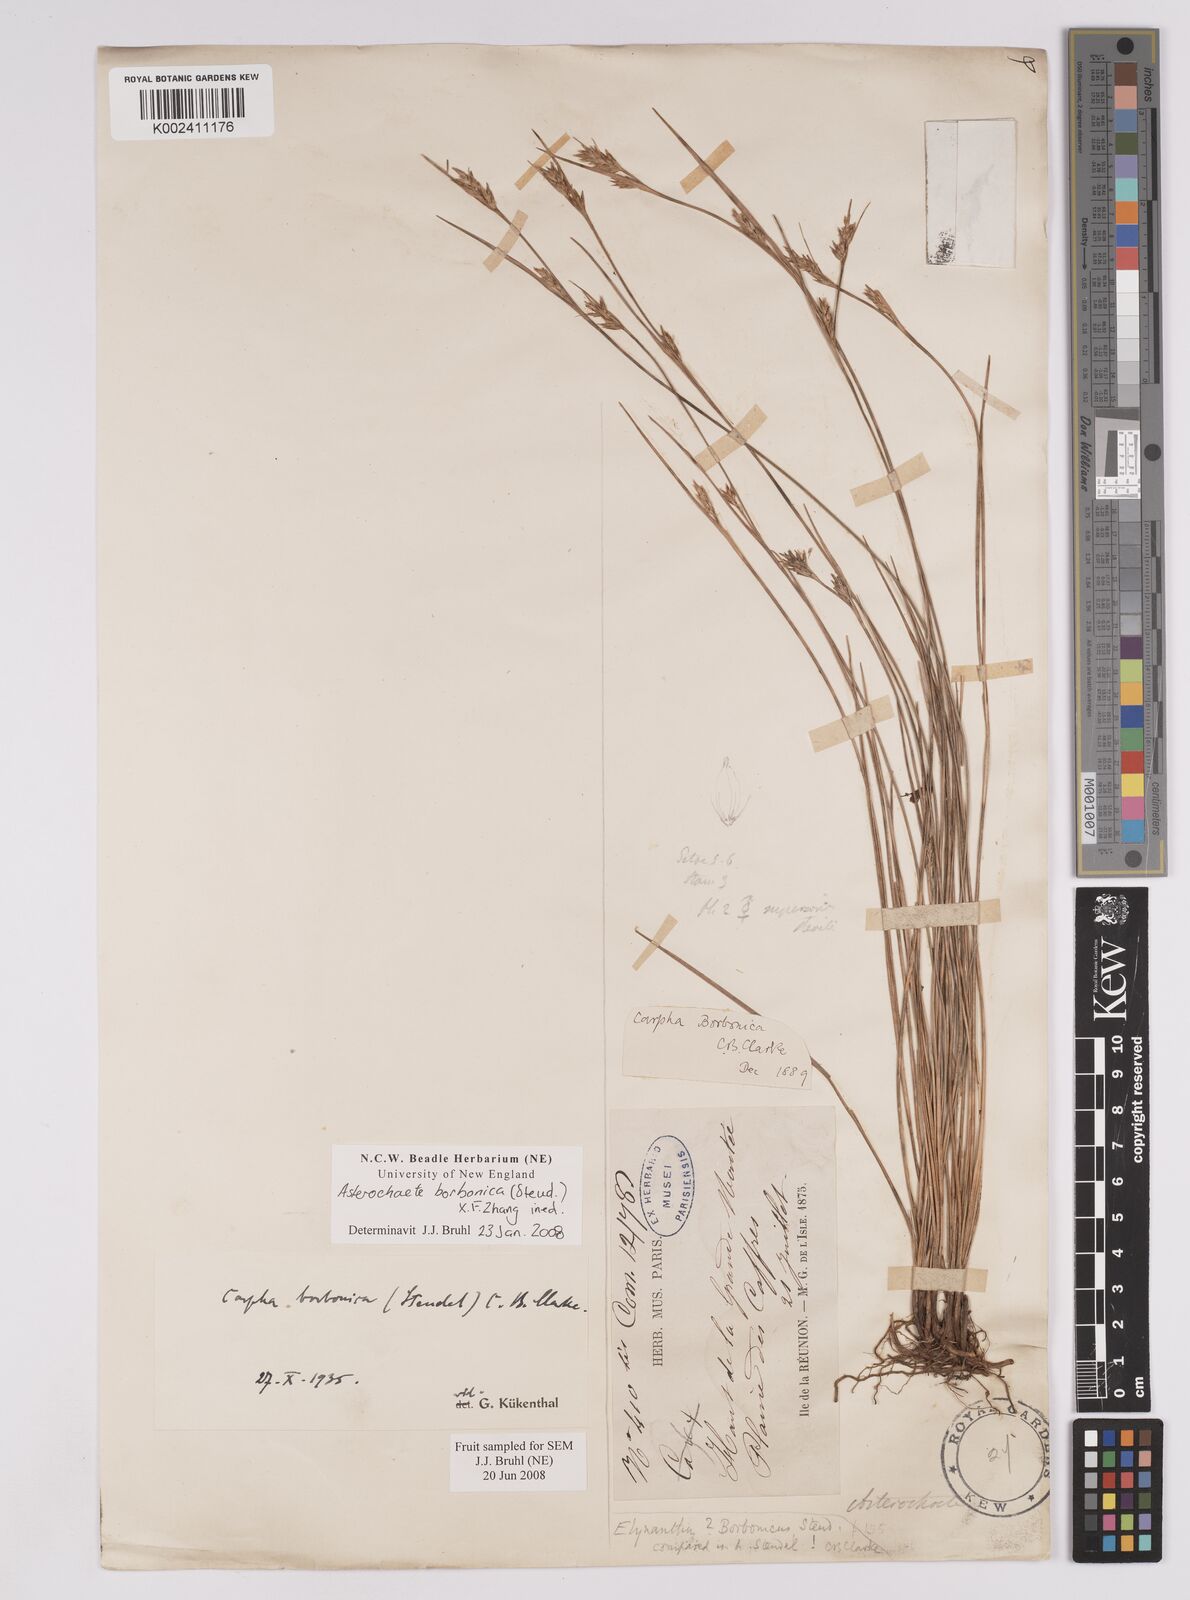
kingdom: Plantae
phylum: Tracheophyta
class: Liliopsida
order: Poales
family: Cyperaceae
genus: Carpha
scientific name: Carpha borbonica
